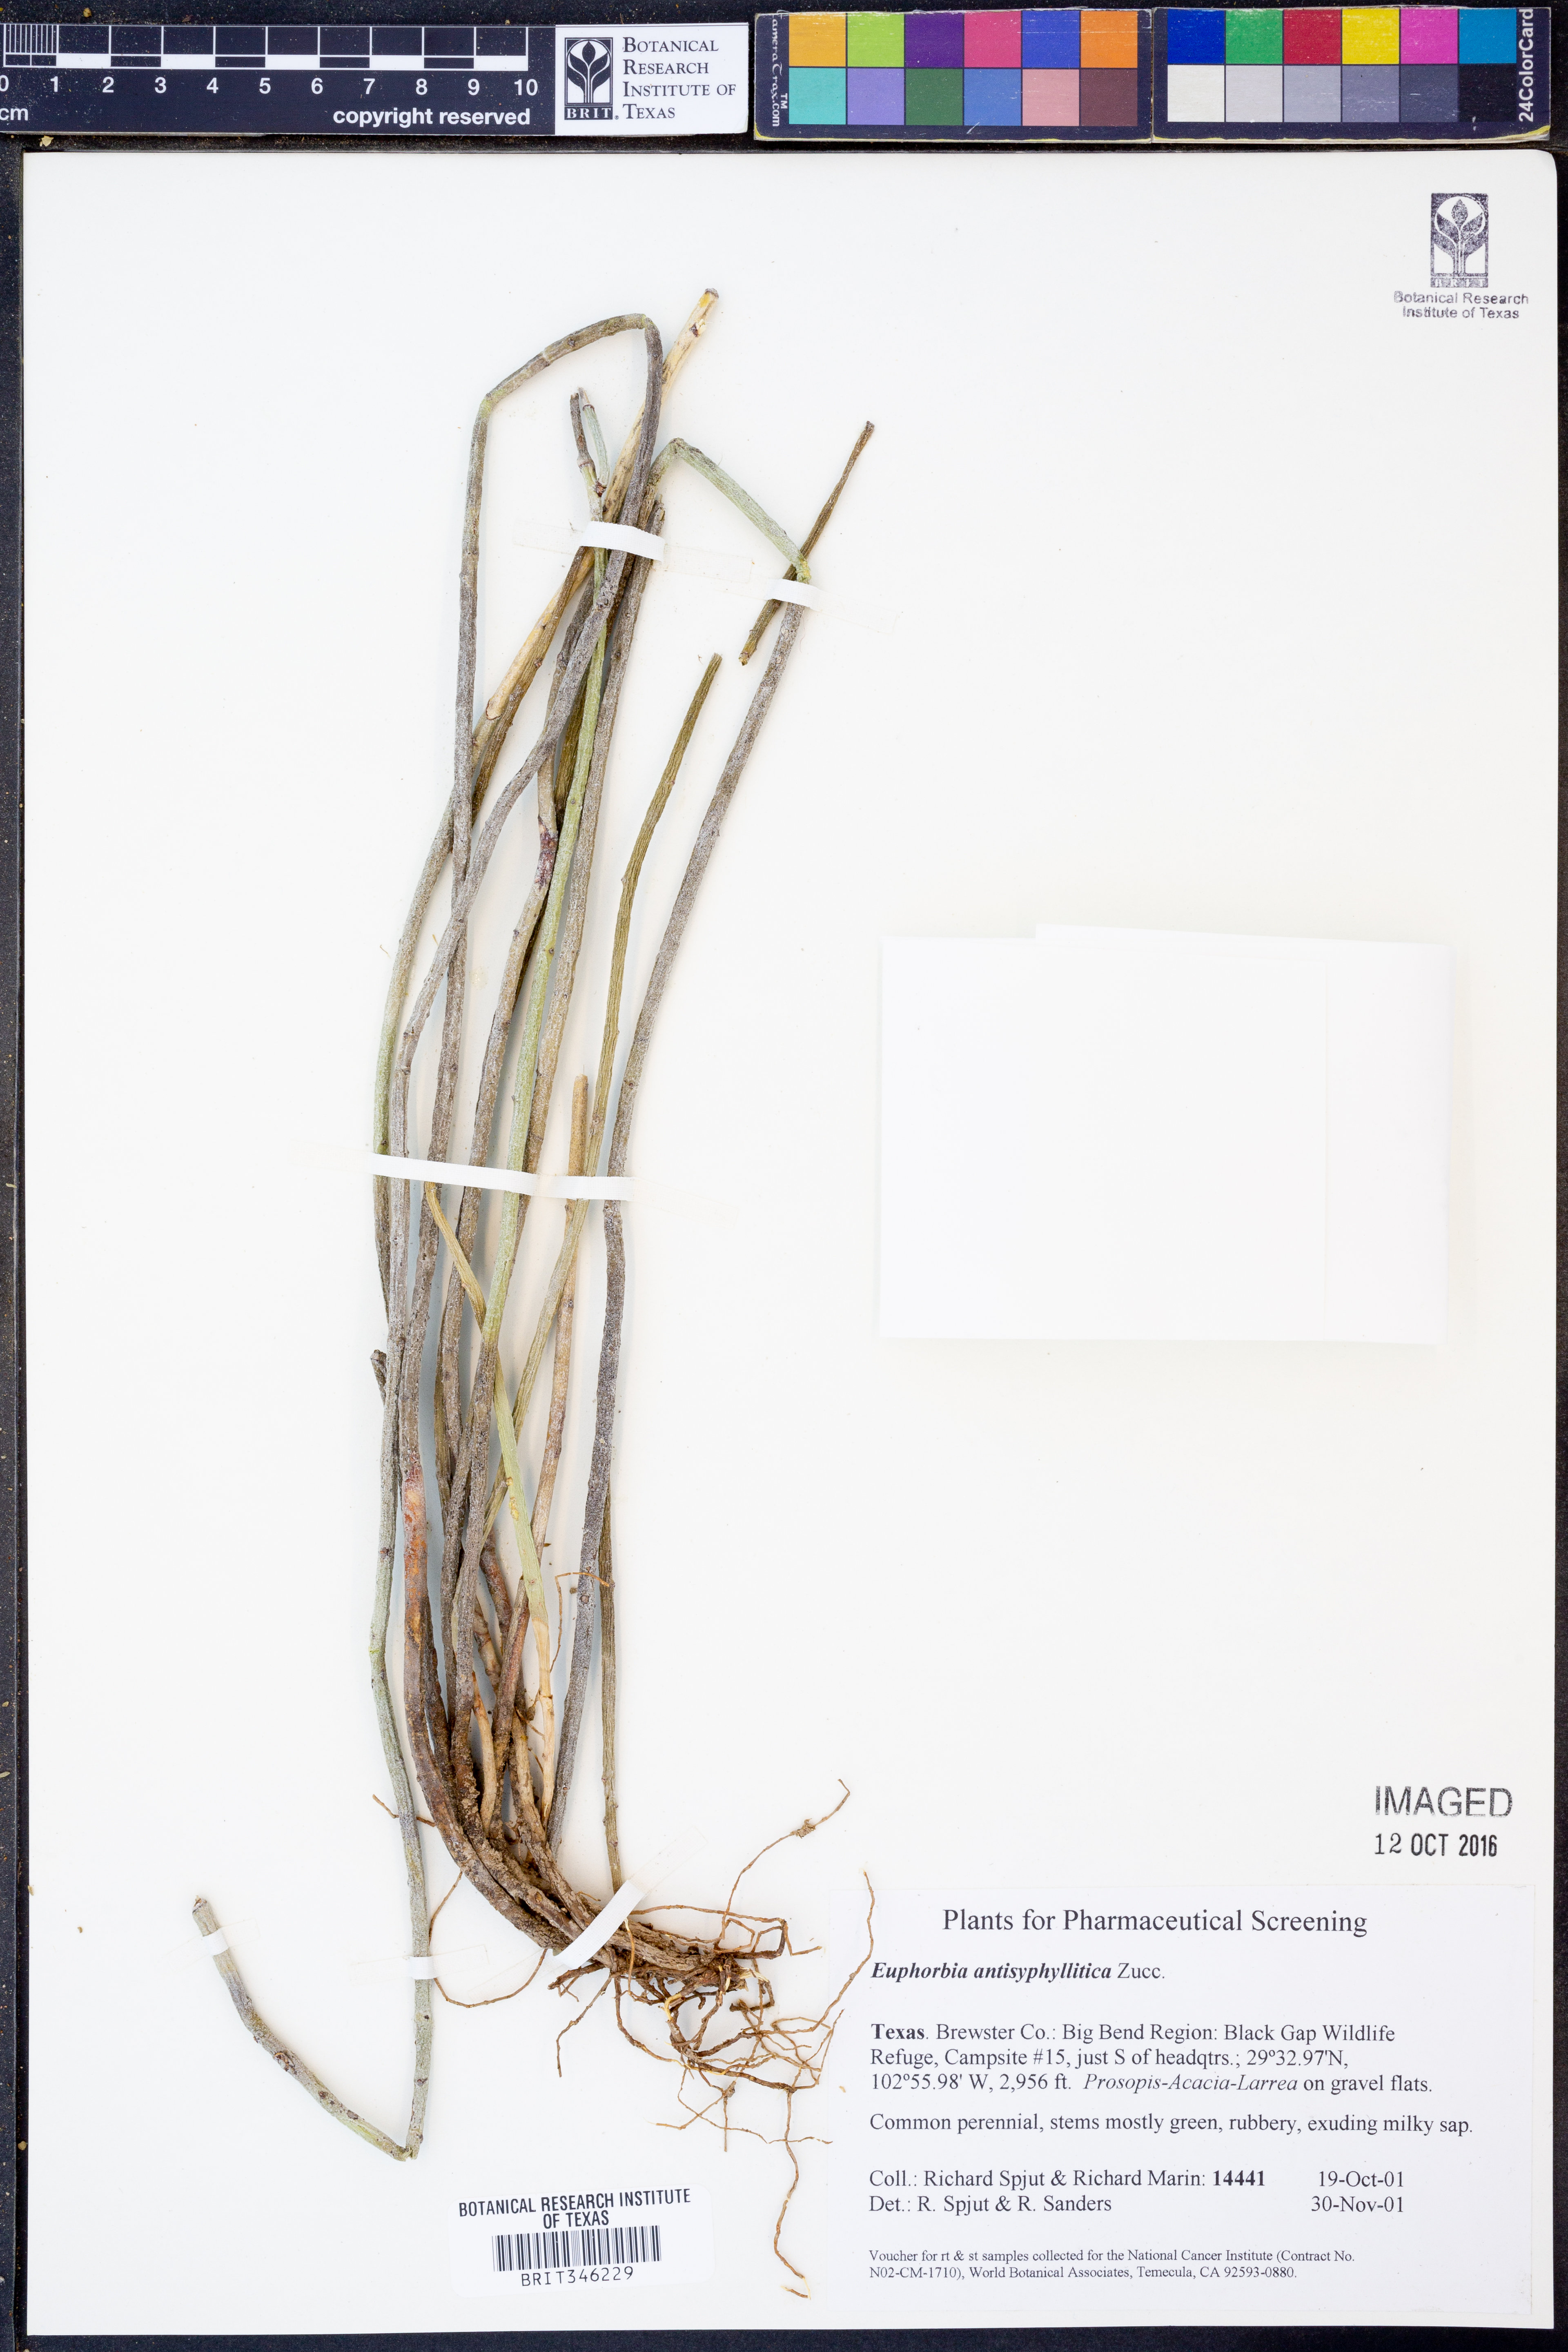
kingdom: Plantae
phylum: Tracheophyta
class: Magnoliopsida
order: Malpighiales
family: Euphorbiaceae
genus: Euphorbia
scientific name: Euphorbia antisyphilitica
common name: Candelilla
